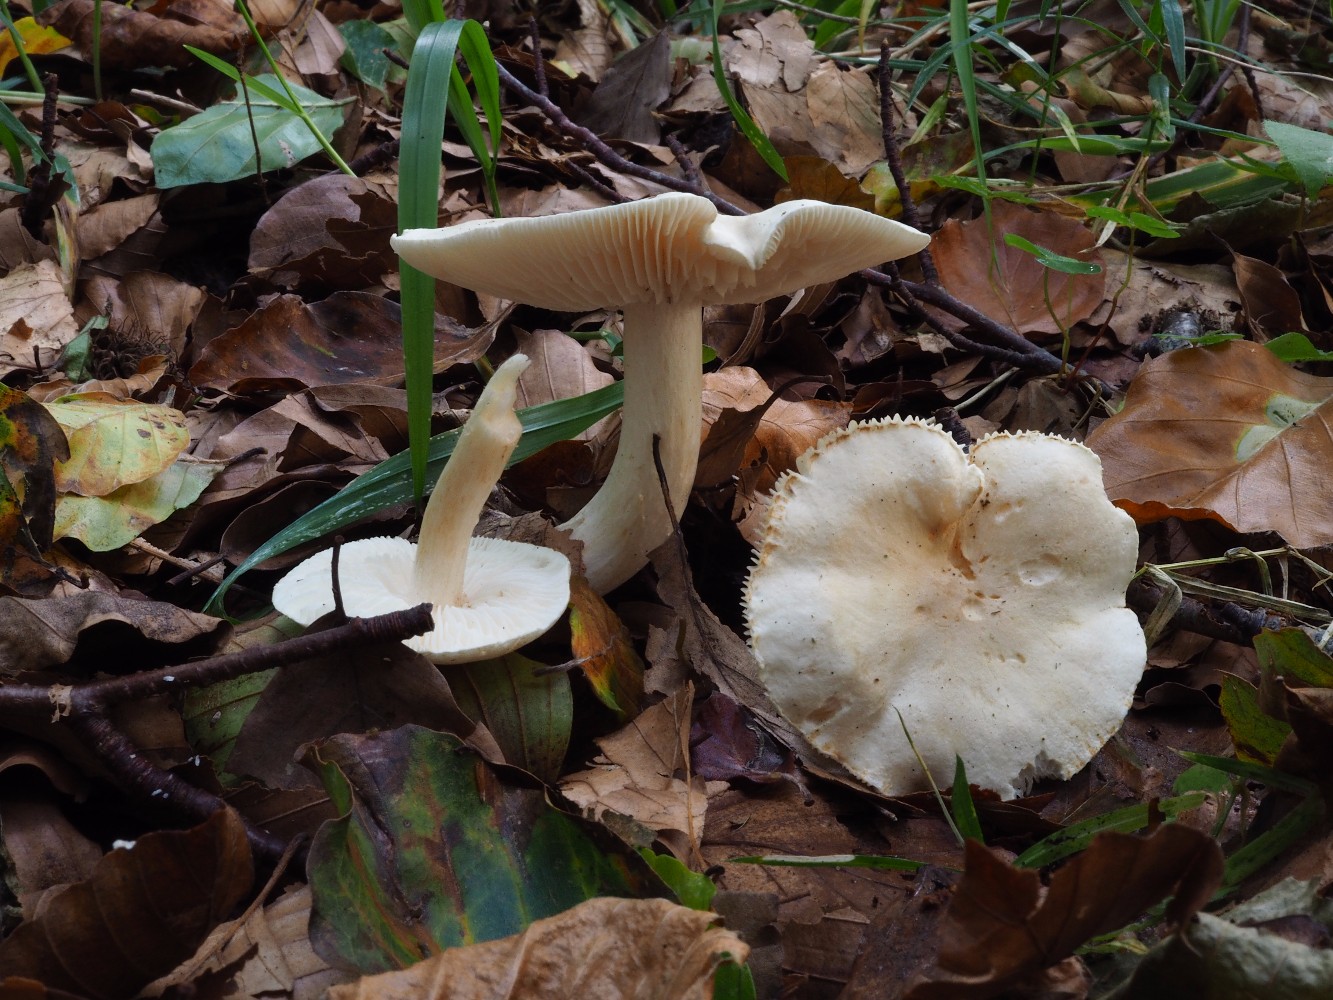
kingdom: Fungi
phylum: Basidiomycota
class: Agaricomycetes
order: Agaricales
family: Tricholomataceae
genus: Tricholoma
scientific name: Tricholoma lascivum
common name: stinkende ridderhat
